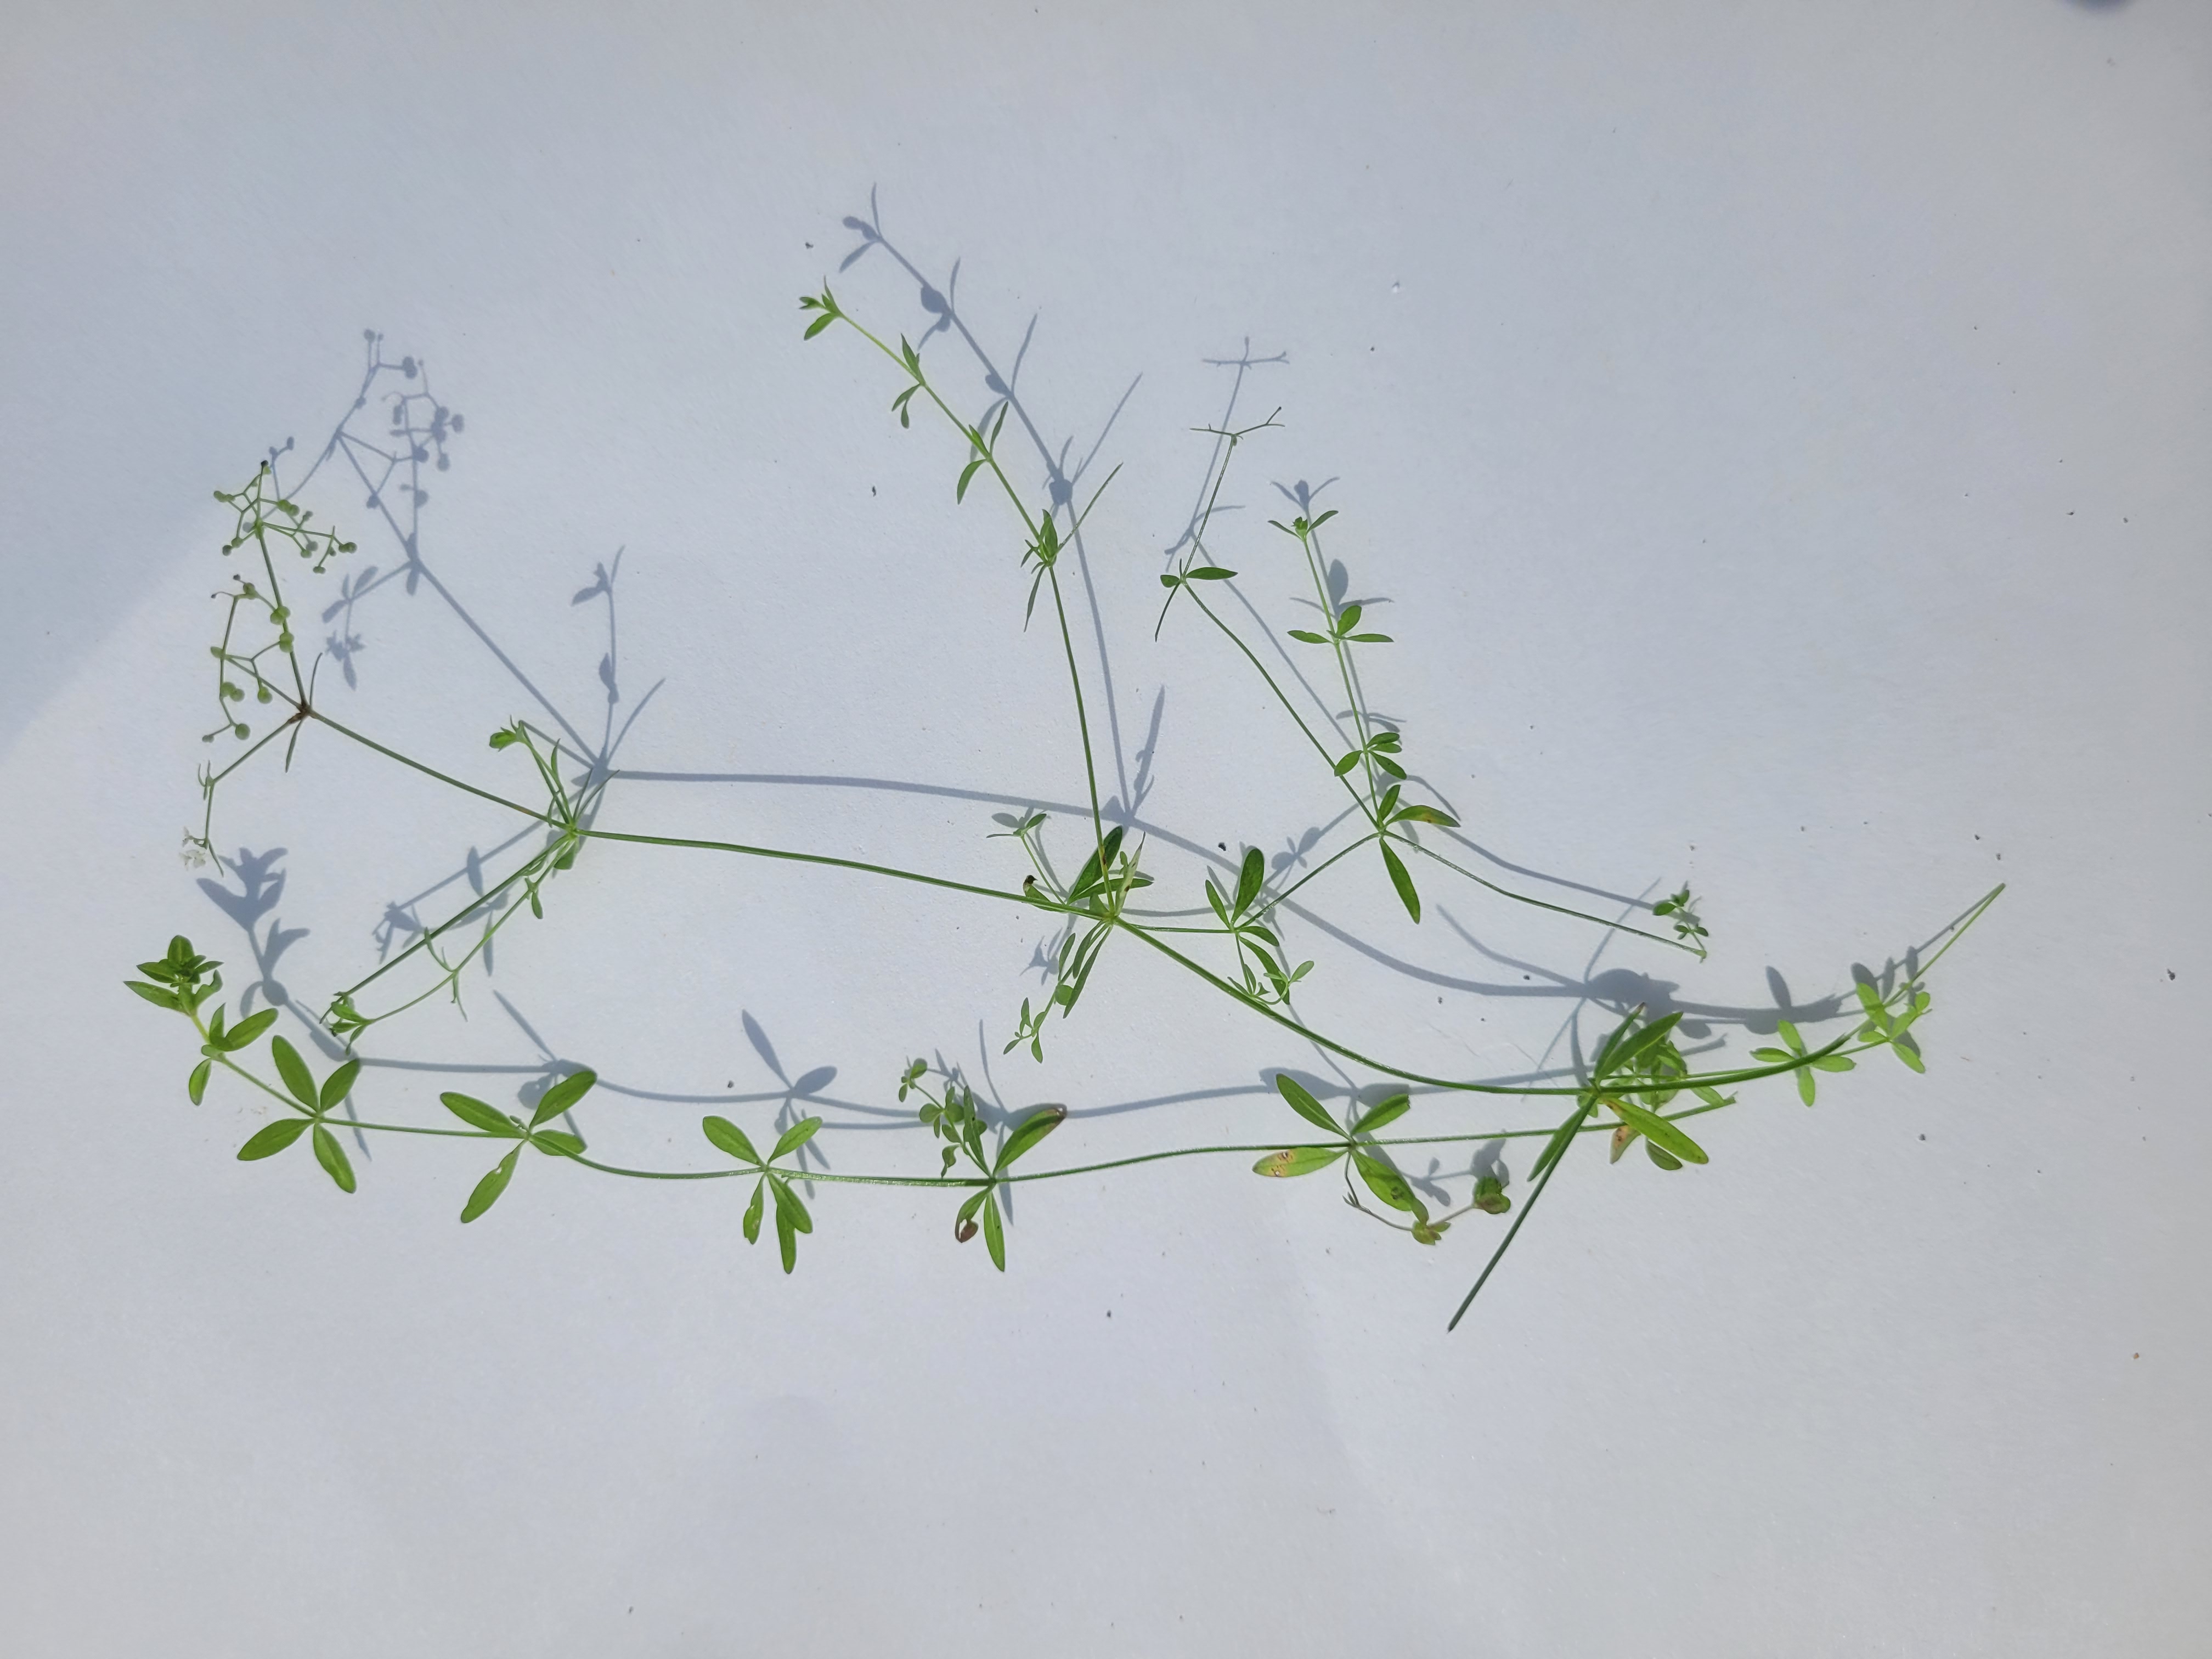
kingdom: Plantae
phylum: Tracheophyta
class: Magnoliopsida
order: Gentianales
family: Rubiaceae
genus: Galium
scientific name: Galium palustre
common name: Kær-snerre
